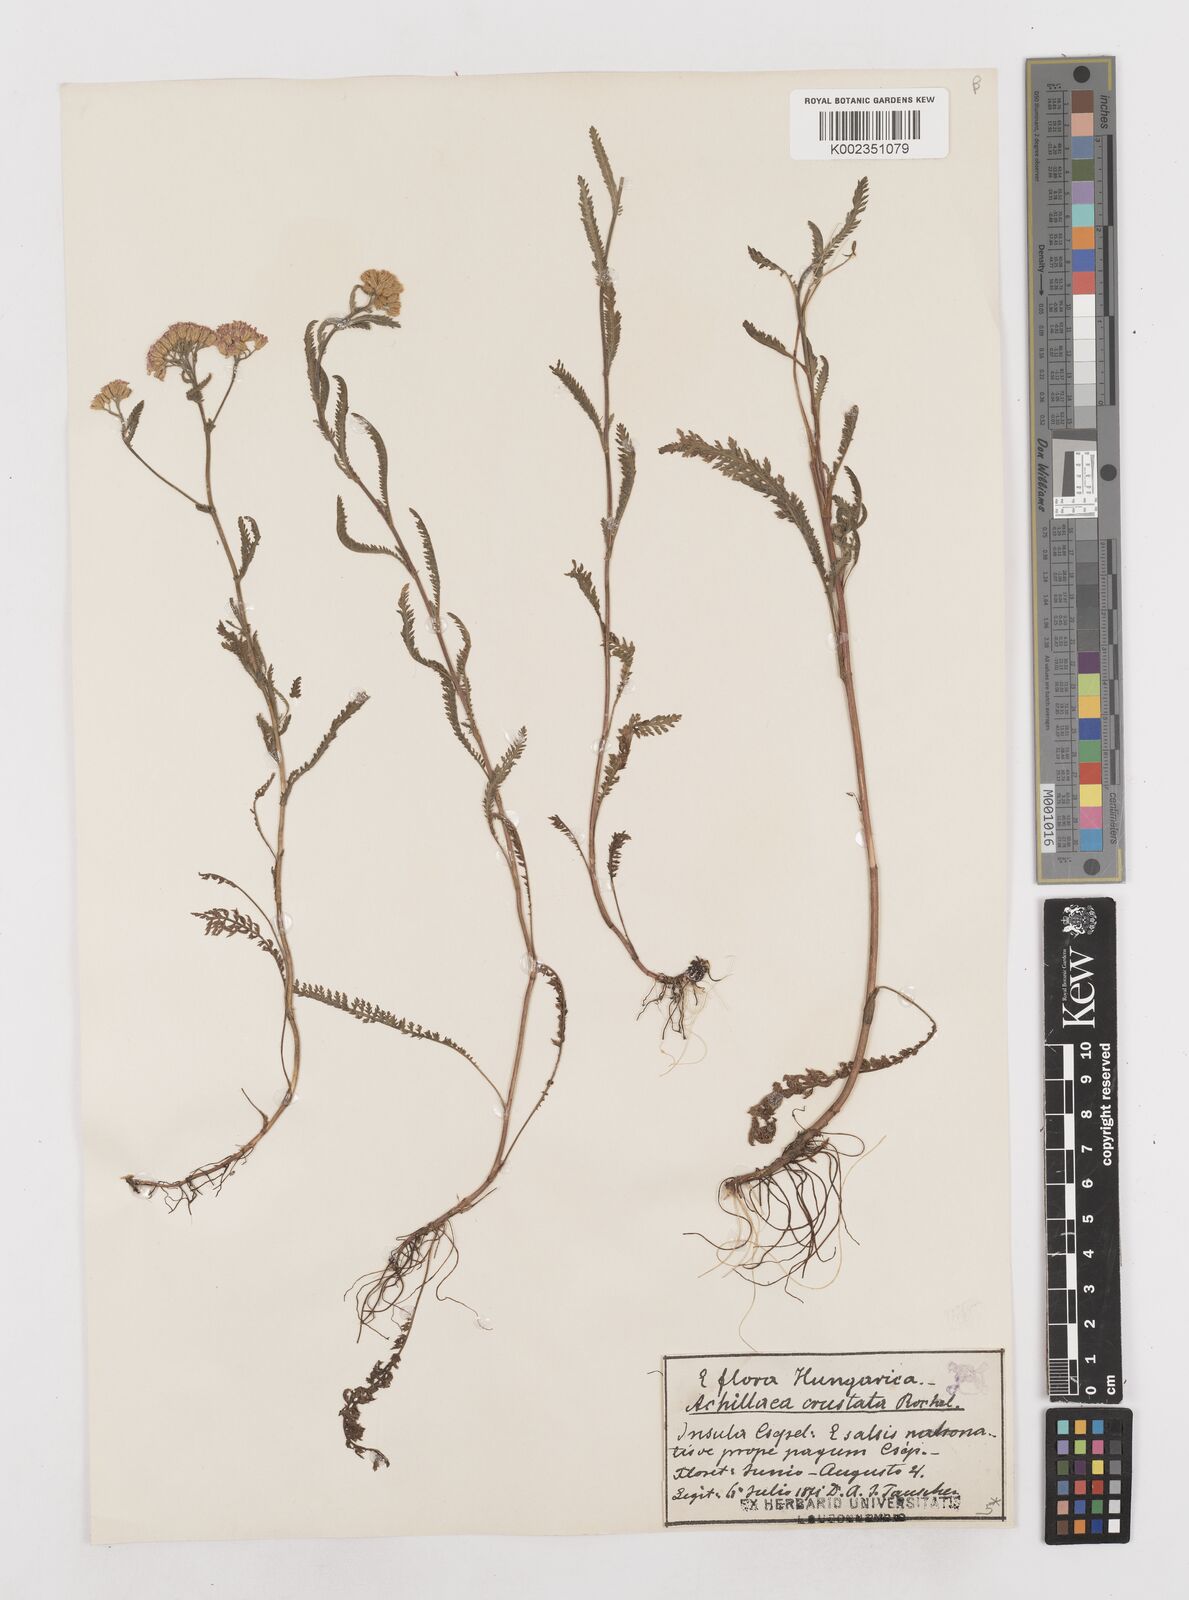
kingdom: Plantae
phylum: Tracheophyta
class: Magnoliopsida
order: Asterales
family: Asteraceae
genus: Achillea
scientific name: Achillea millefolium
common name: Yarrow
